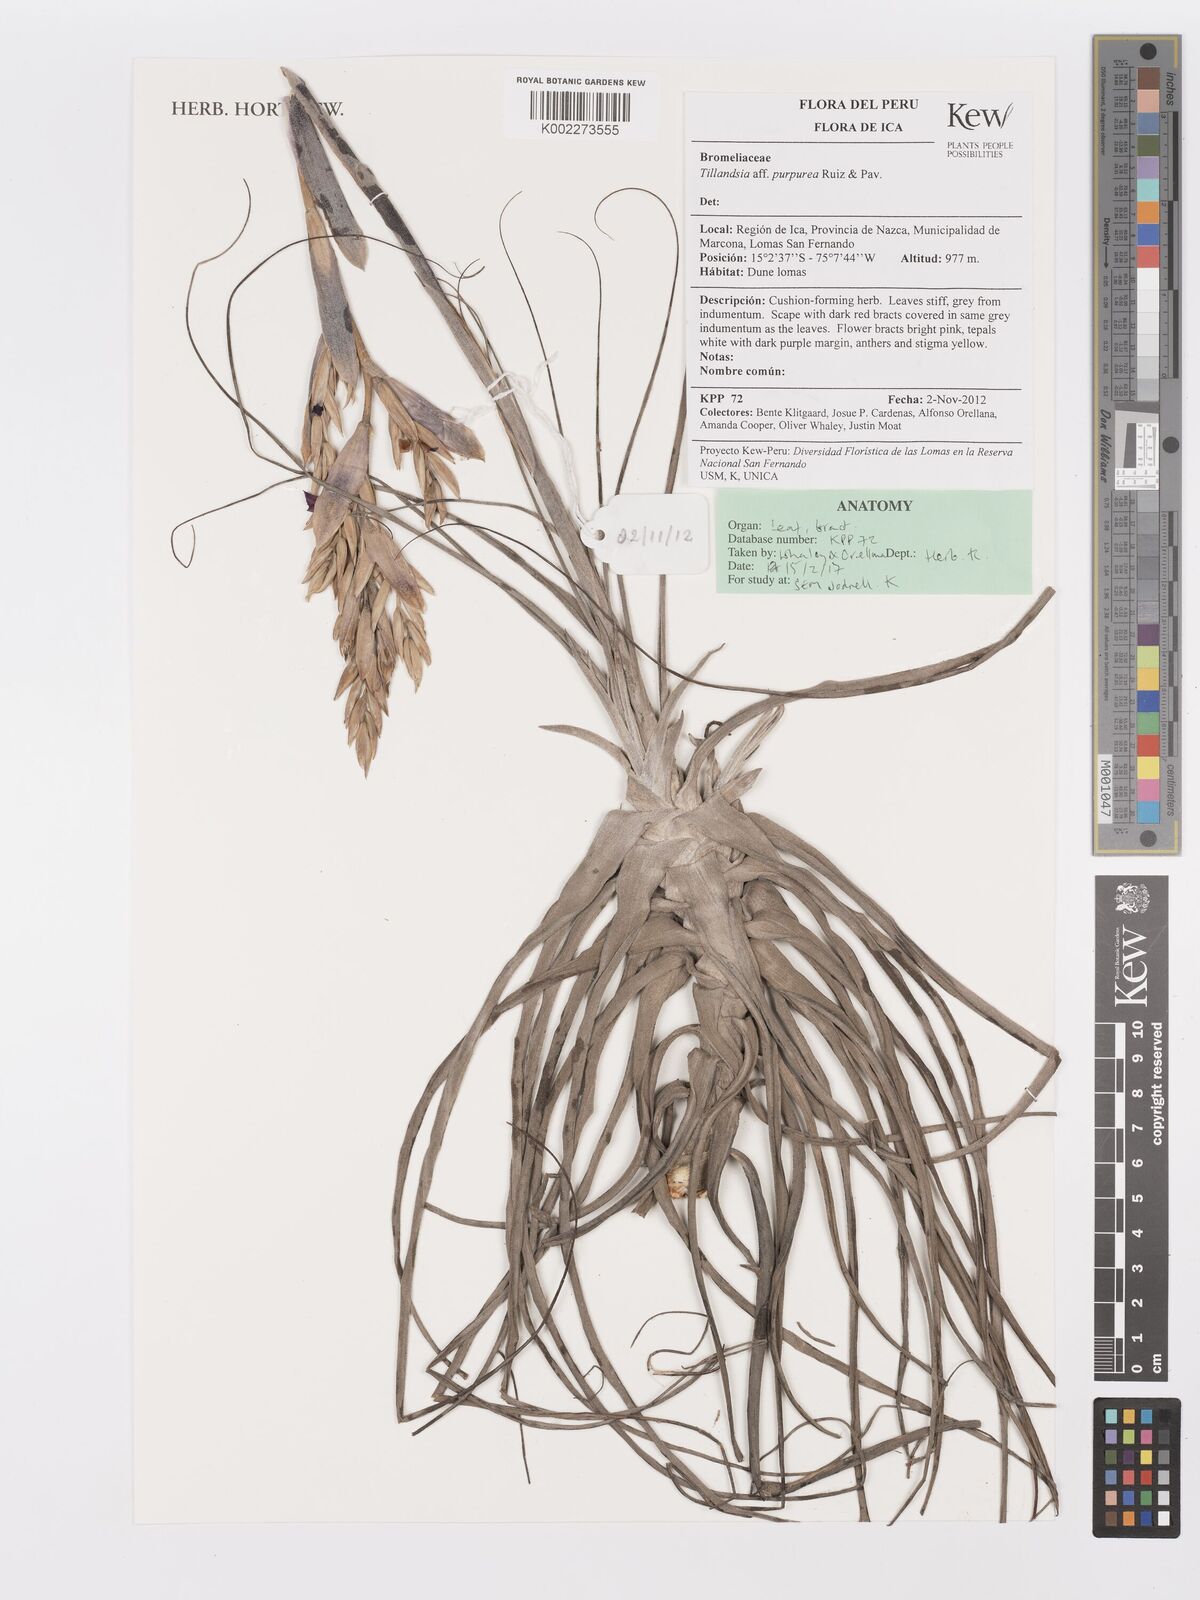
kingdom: Plantae
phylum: Tracheophyta
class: Liliopsida
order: Poales
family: Bromeliaceae
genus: Tillandsia
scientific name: Tillandsia purpurea
